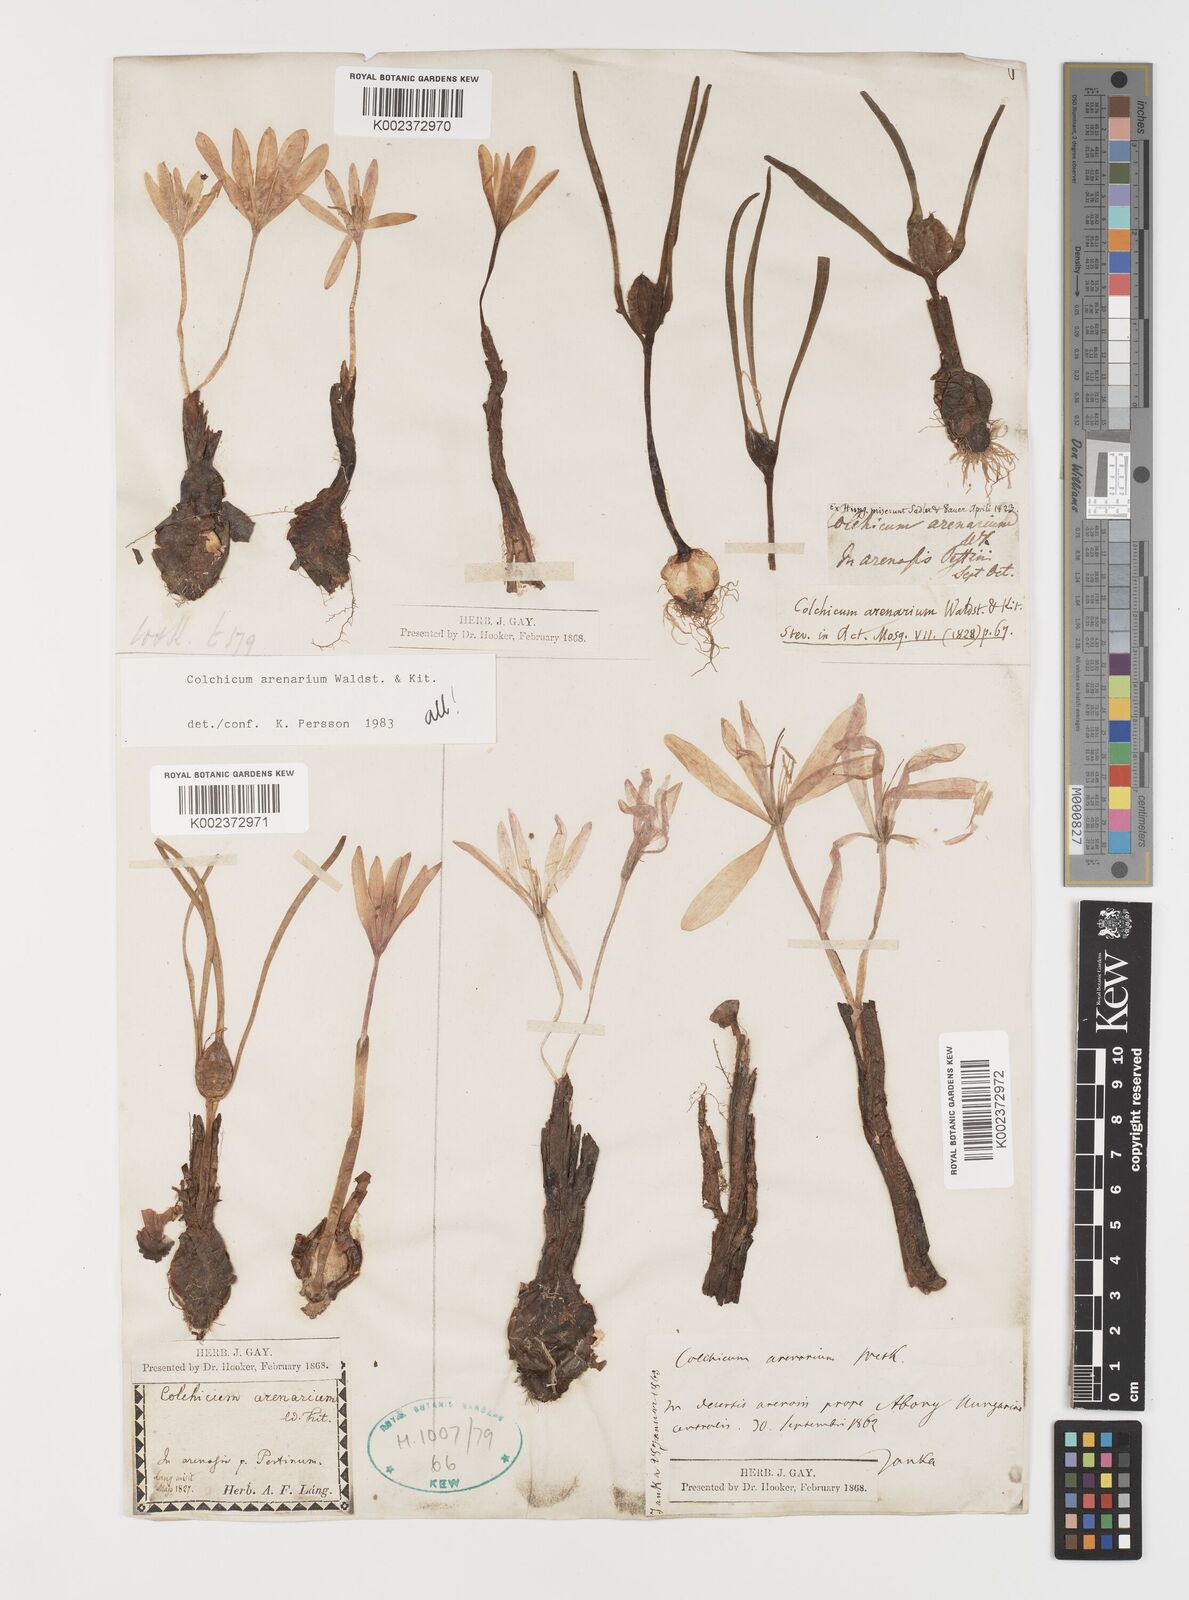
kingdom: Plantae
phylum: Tracheophyta
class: Liliopsida
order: Liliales
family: Colchicaceae
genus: Colchicum
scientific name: Colchicum arenarium
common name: Sand saffron
